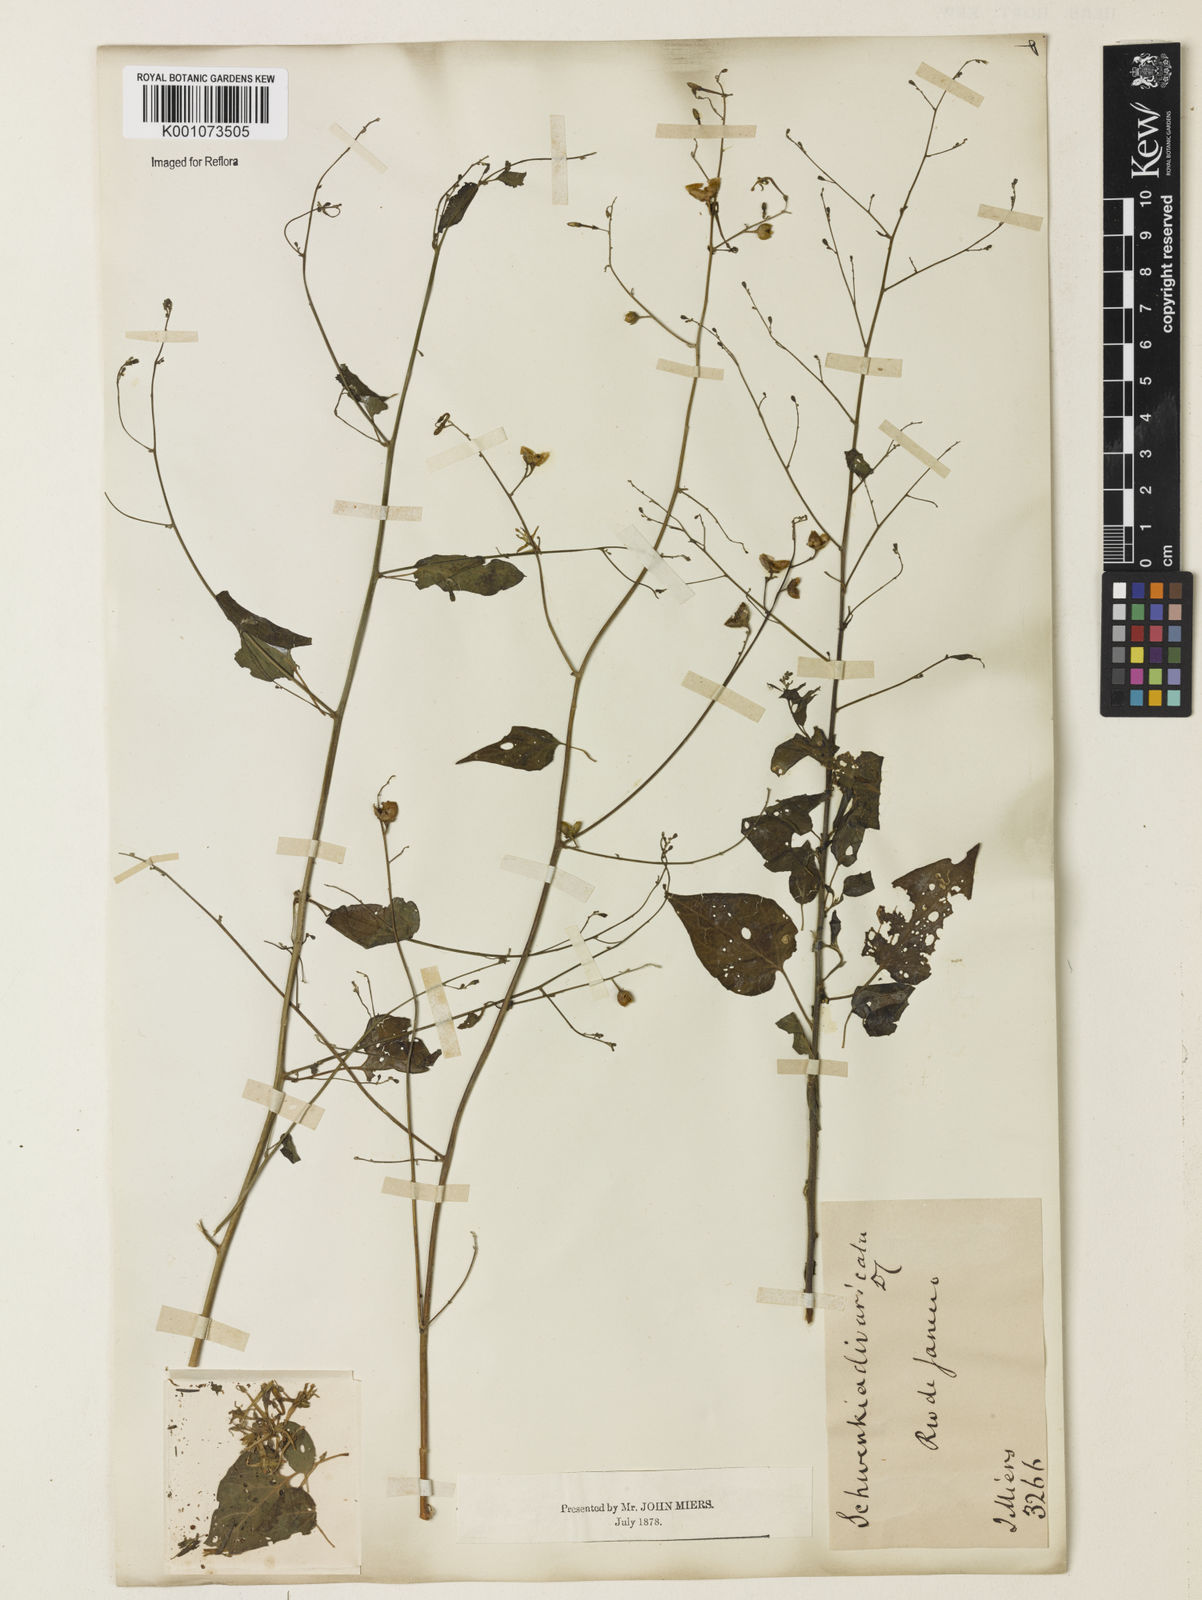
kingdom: Plantae
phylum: Tracheophyta
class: Magnoliopsida
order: Solanales
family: Solanaceae
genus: Schwenckia
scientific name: Schwenckia paniculata
